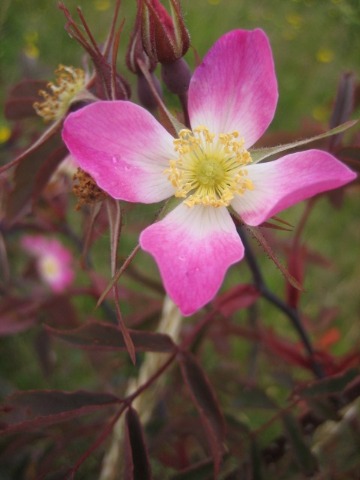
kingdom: Plantae
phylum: Tracheophyta
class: Magnoliopsida
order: Rosales
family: Rosaceae
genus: Rosa
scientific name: Rosa glauca
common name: Kobber-rose
